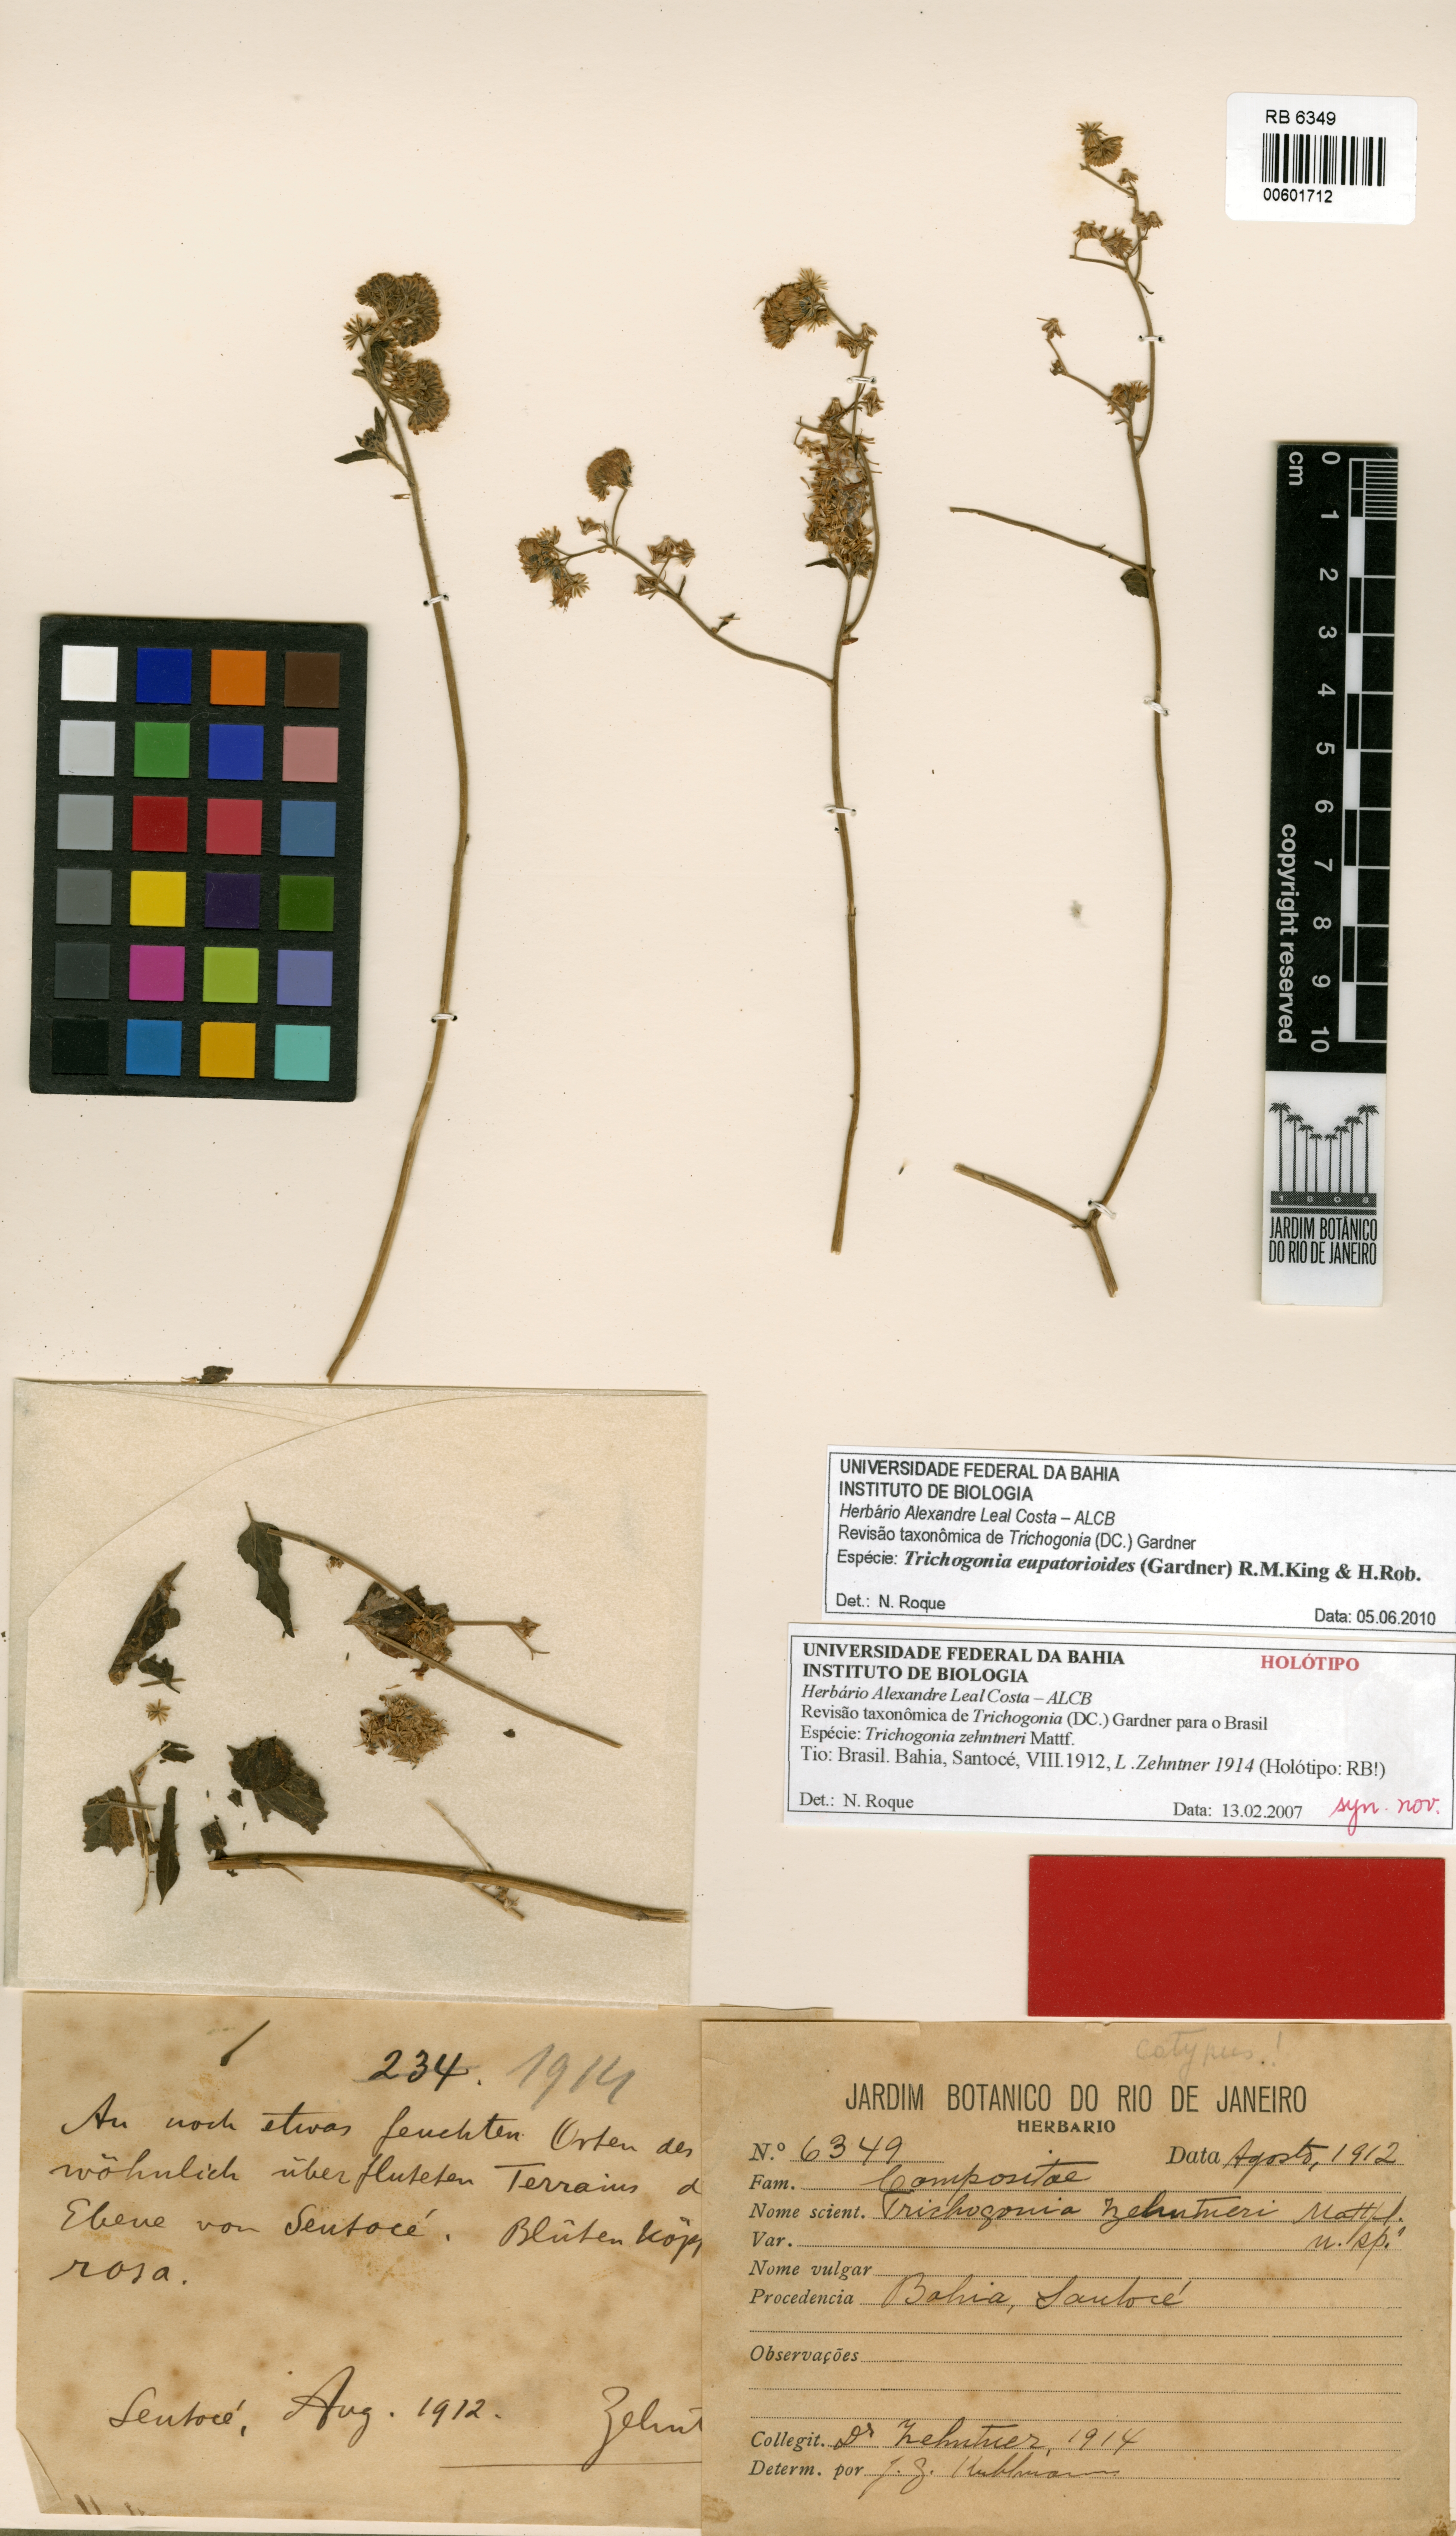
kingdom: Plantae
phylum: Tracheophyta
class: Magnoliopsida
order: Asterales
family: Asteraceae
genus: Trichogonia
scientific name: Trichogonia eupatorioides
